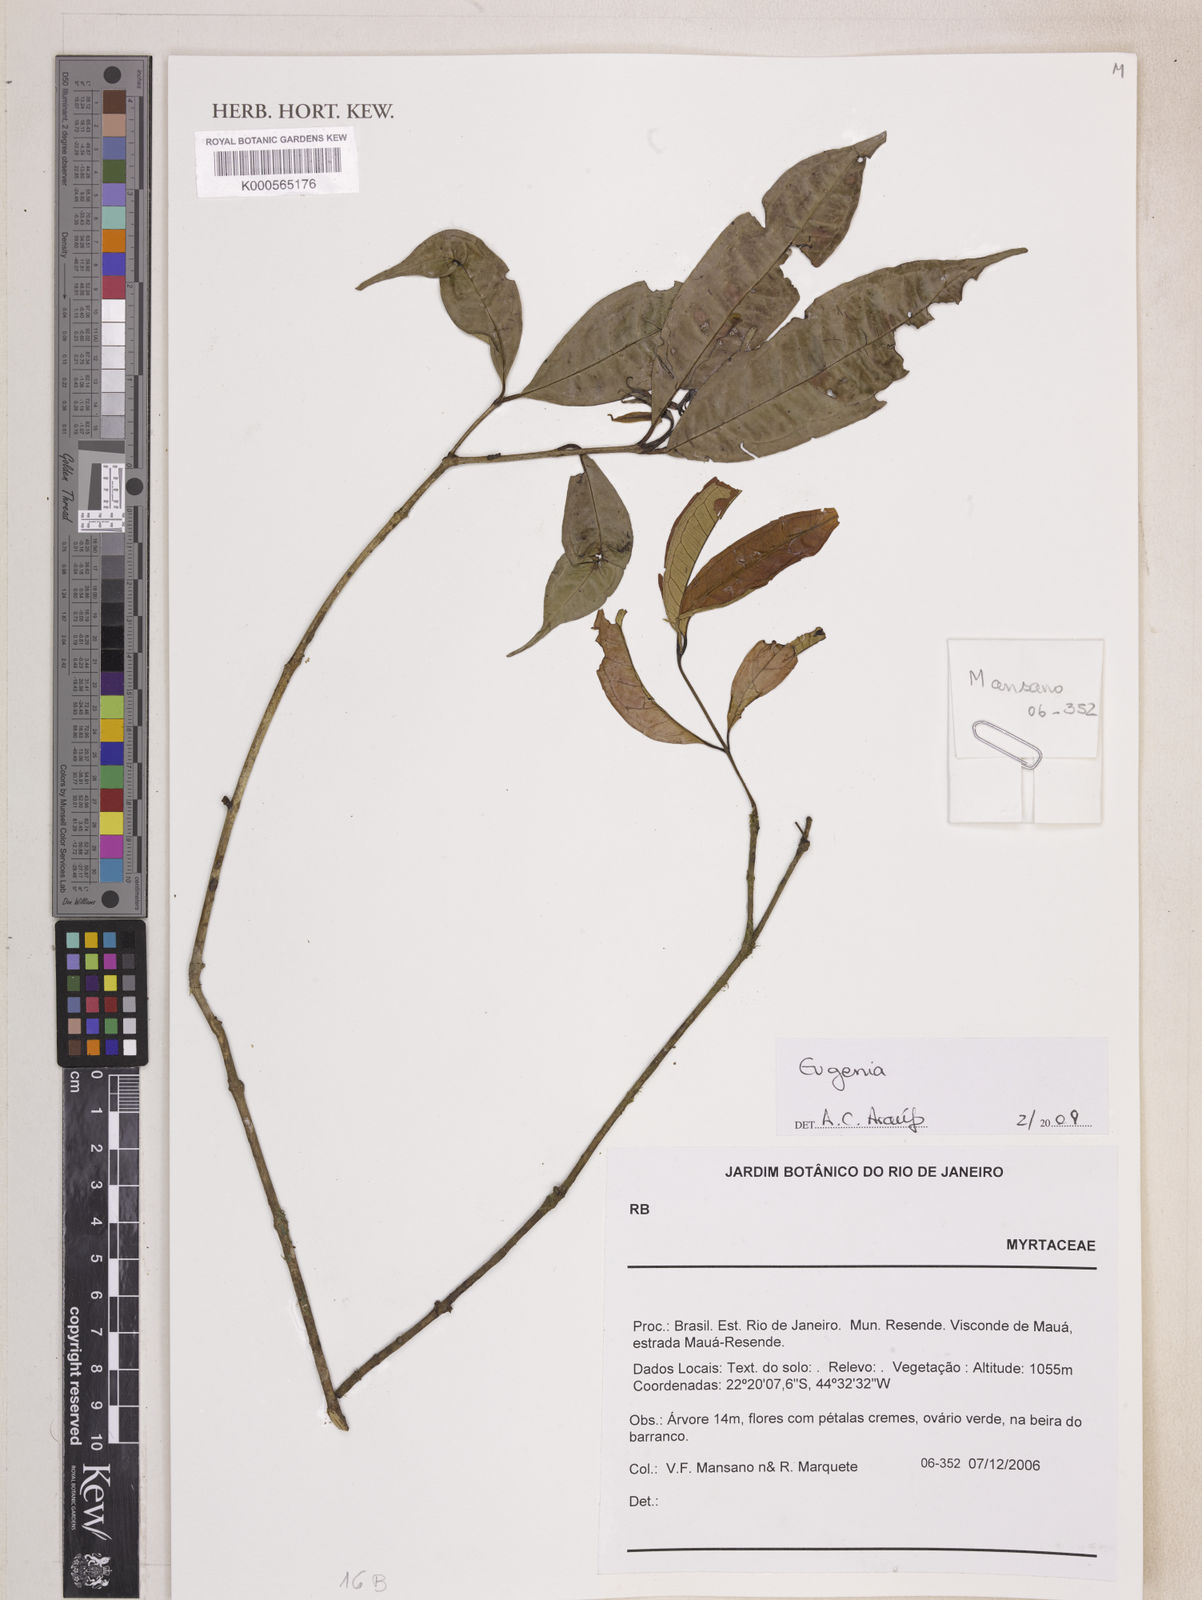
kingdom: Plantae
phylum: Tracheophyta
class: Magnoliopsida
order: Myrtales
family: Myrtaceae
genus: Eugenia
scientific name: Eugenia brevistyla
